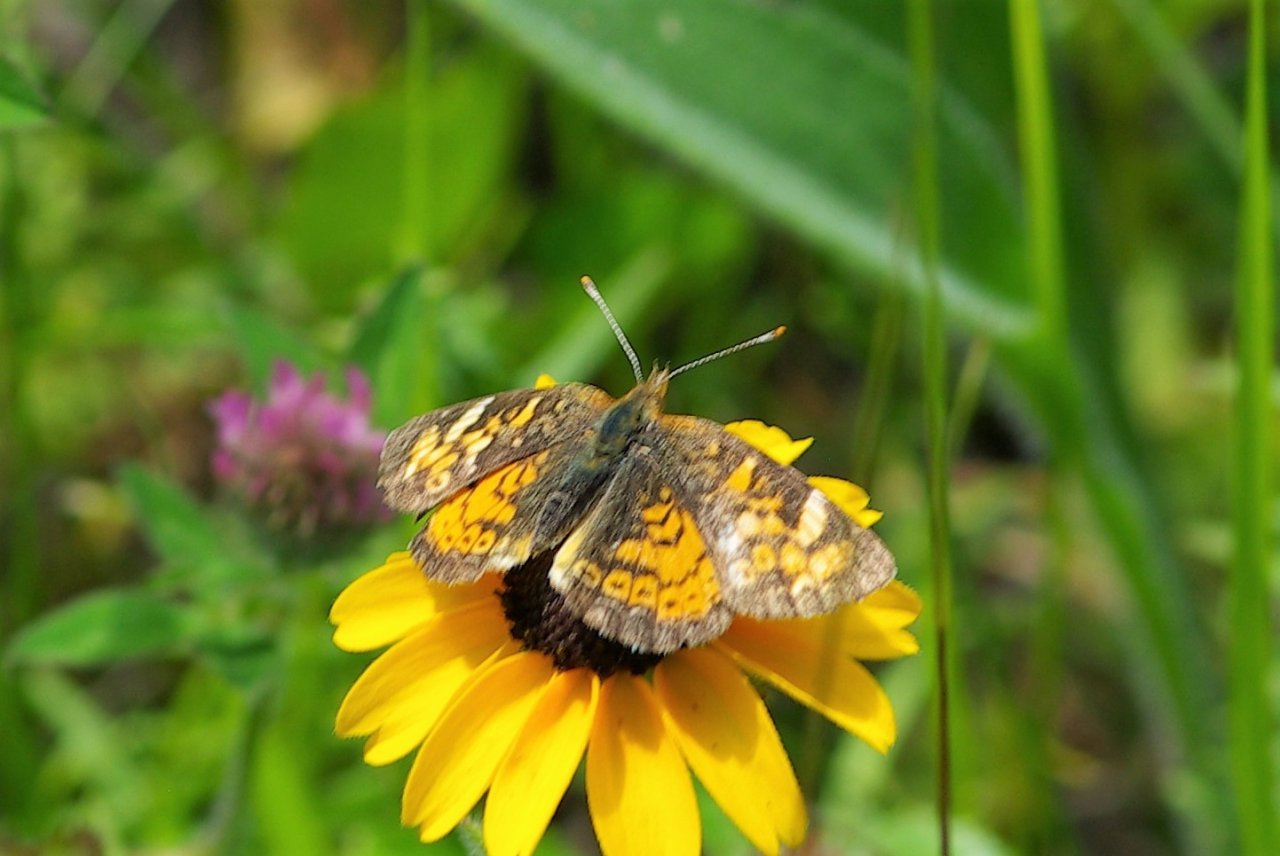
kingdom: Animalia
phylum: Arthropoda
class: Insecta
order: Lepidoptera
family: Nymphalidae
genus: Phyciodes
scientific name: Phyciodes tharos
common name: Northern Crescent
